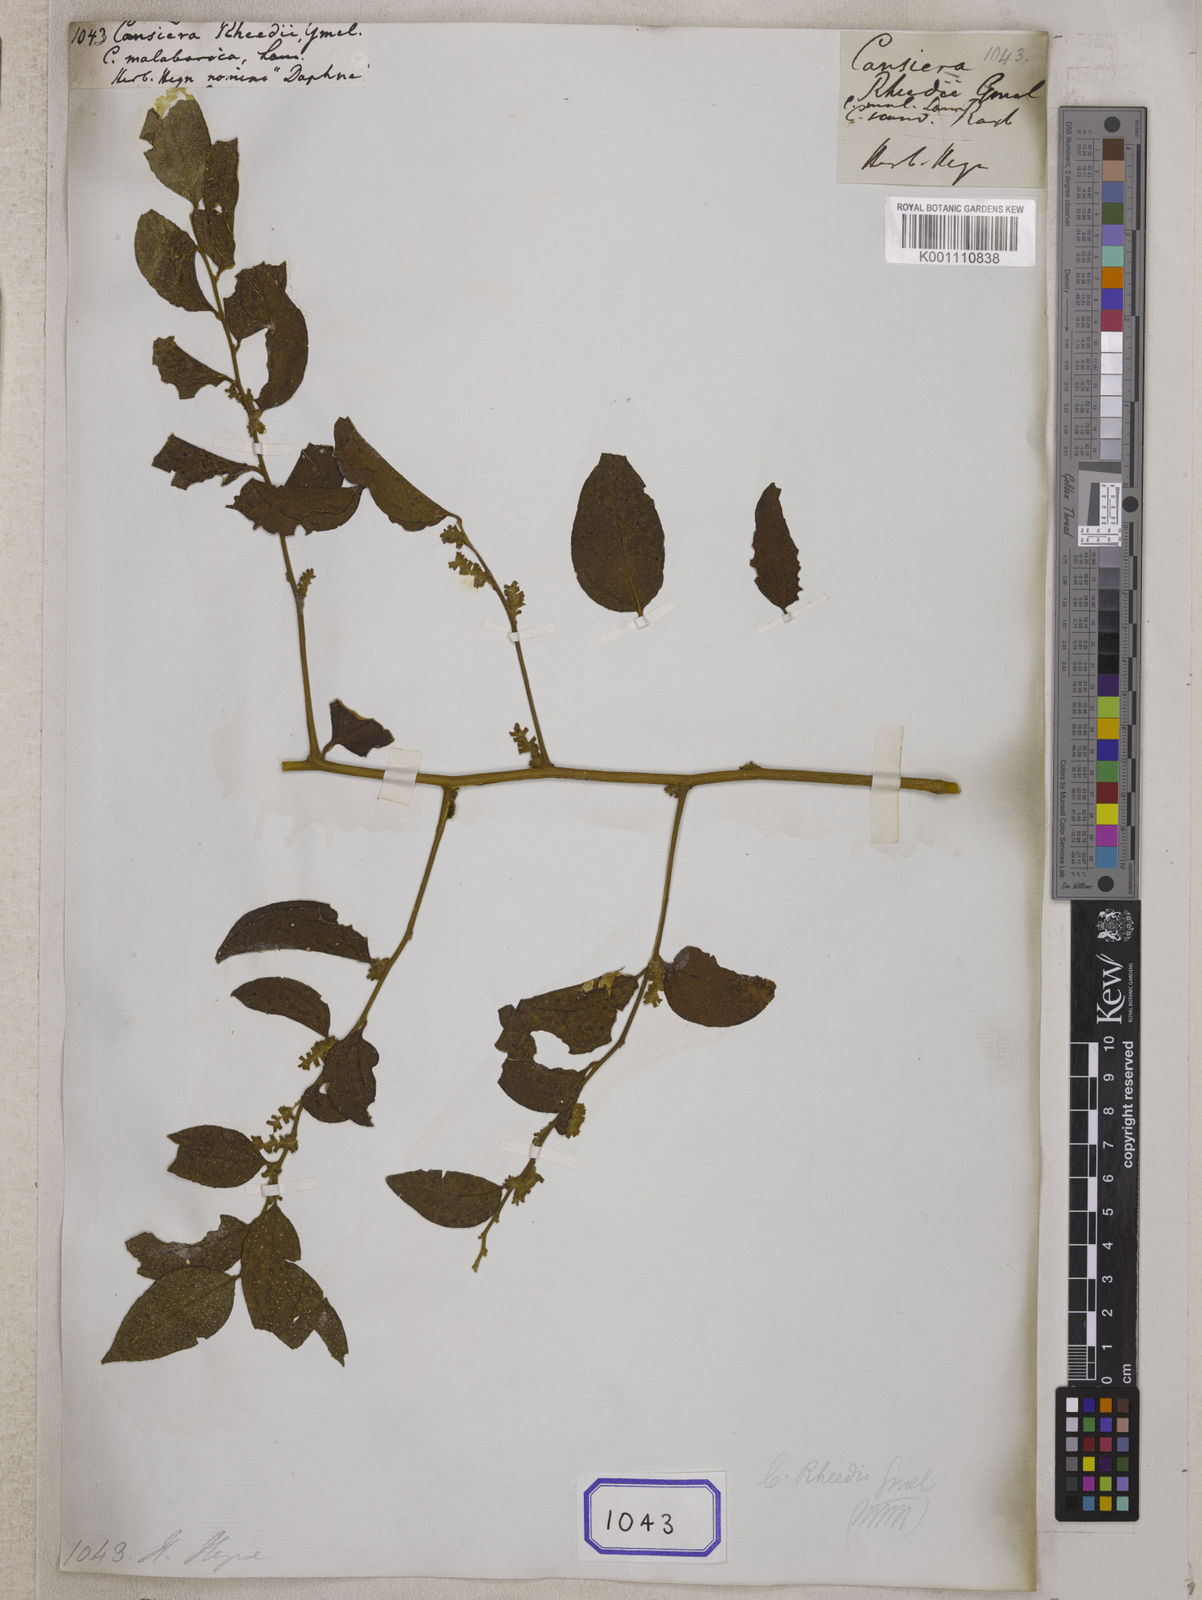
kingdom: Plantae
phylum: Tracheophyta
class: Magnoliopsida
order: Santalales
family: Opiliaceae
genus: Cansjera
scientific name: Cansjera rheedei
